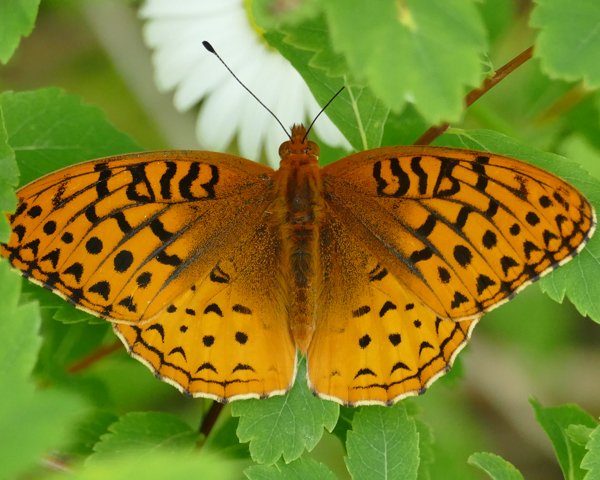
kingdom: Animalia
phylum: Arthropoda
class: Insecta
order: Lepidoptera
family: Nymphalidae
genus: Speyeria
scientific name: Speyeria cybele
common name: Great Spangled Fritillary
